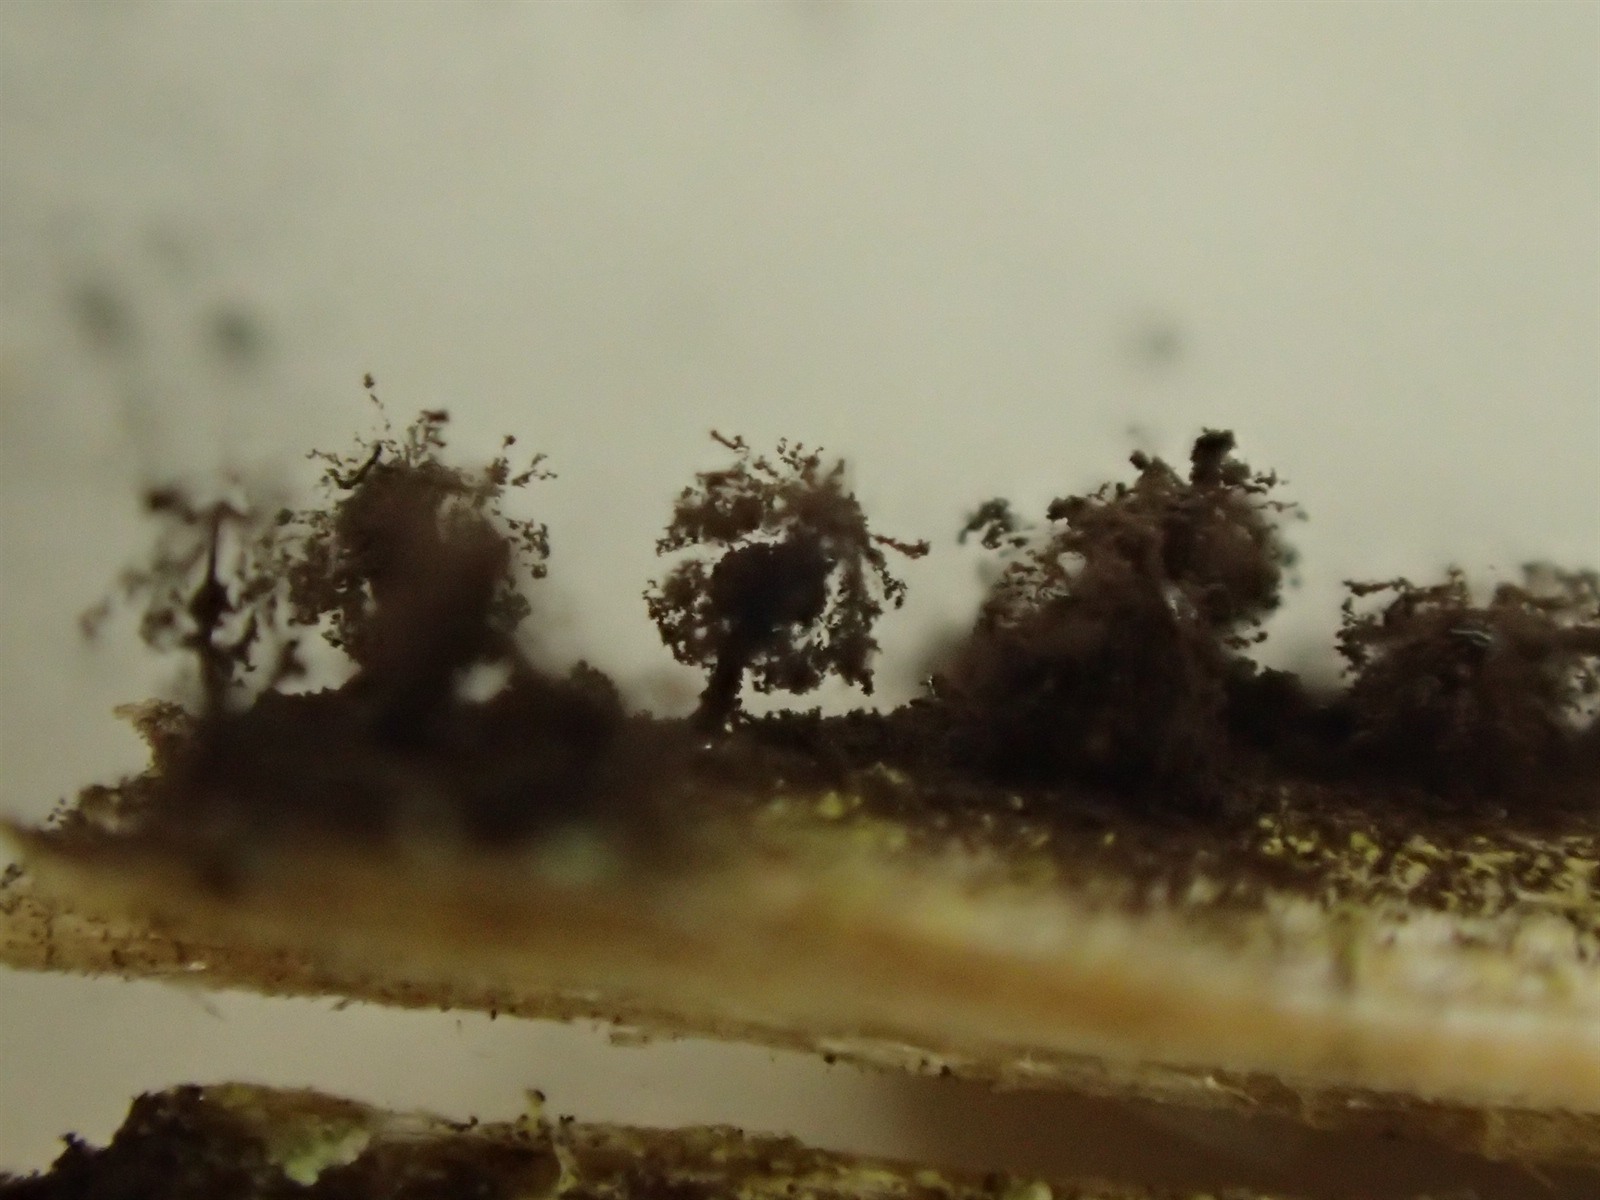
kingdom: Protozoa
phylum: Mycetozoa
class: Myxomycetes
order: Stemonitidales
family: Stemonitidaceae
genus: Enerthenema
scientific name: Enerthenema papillatum
